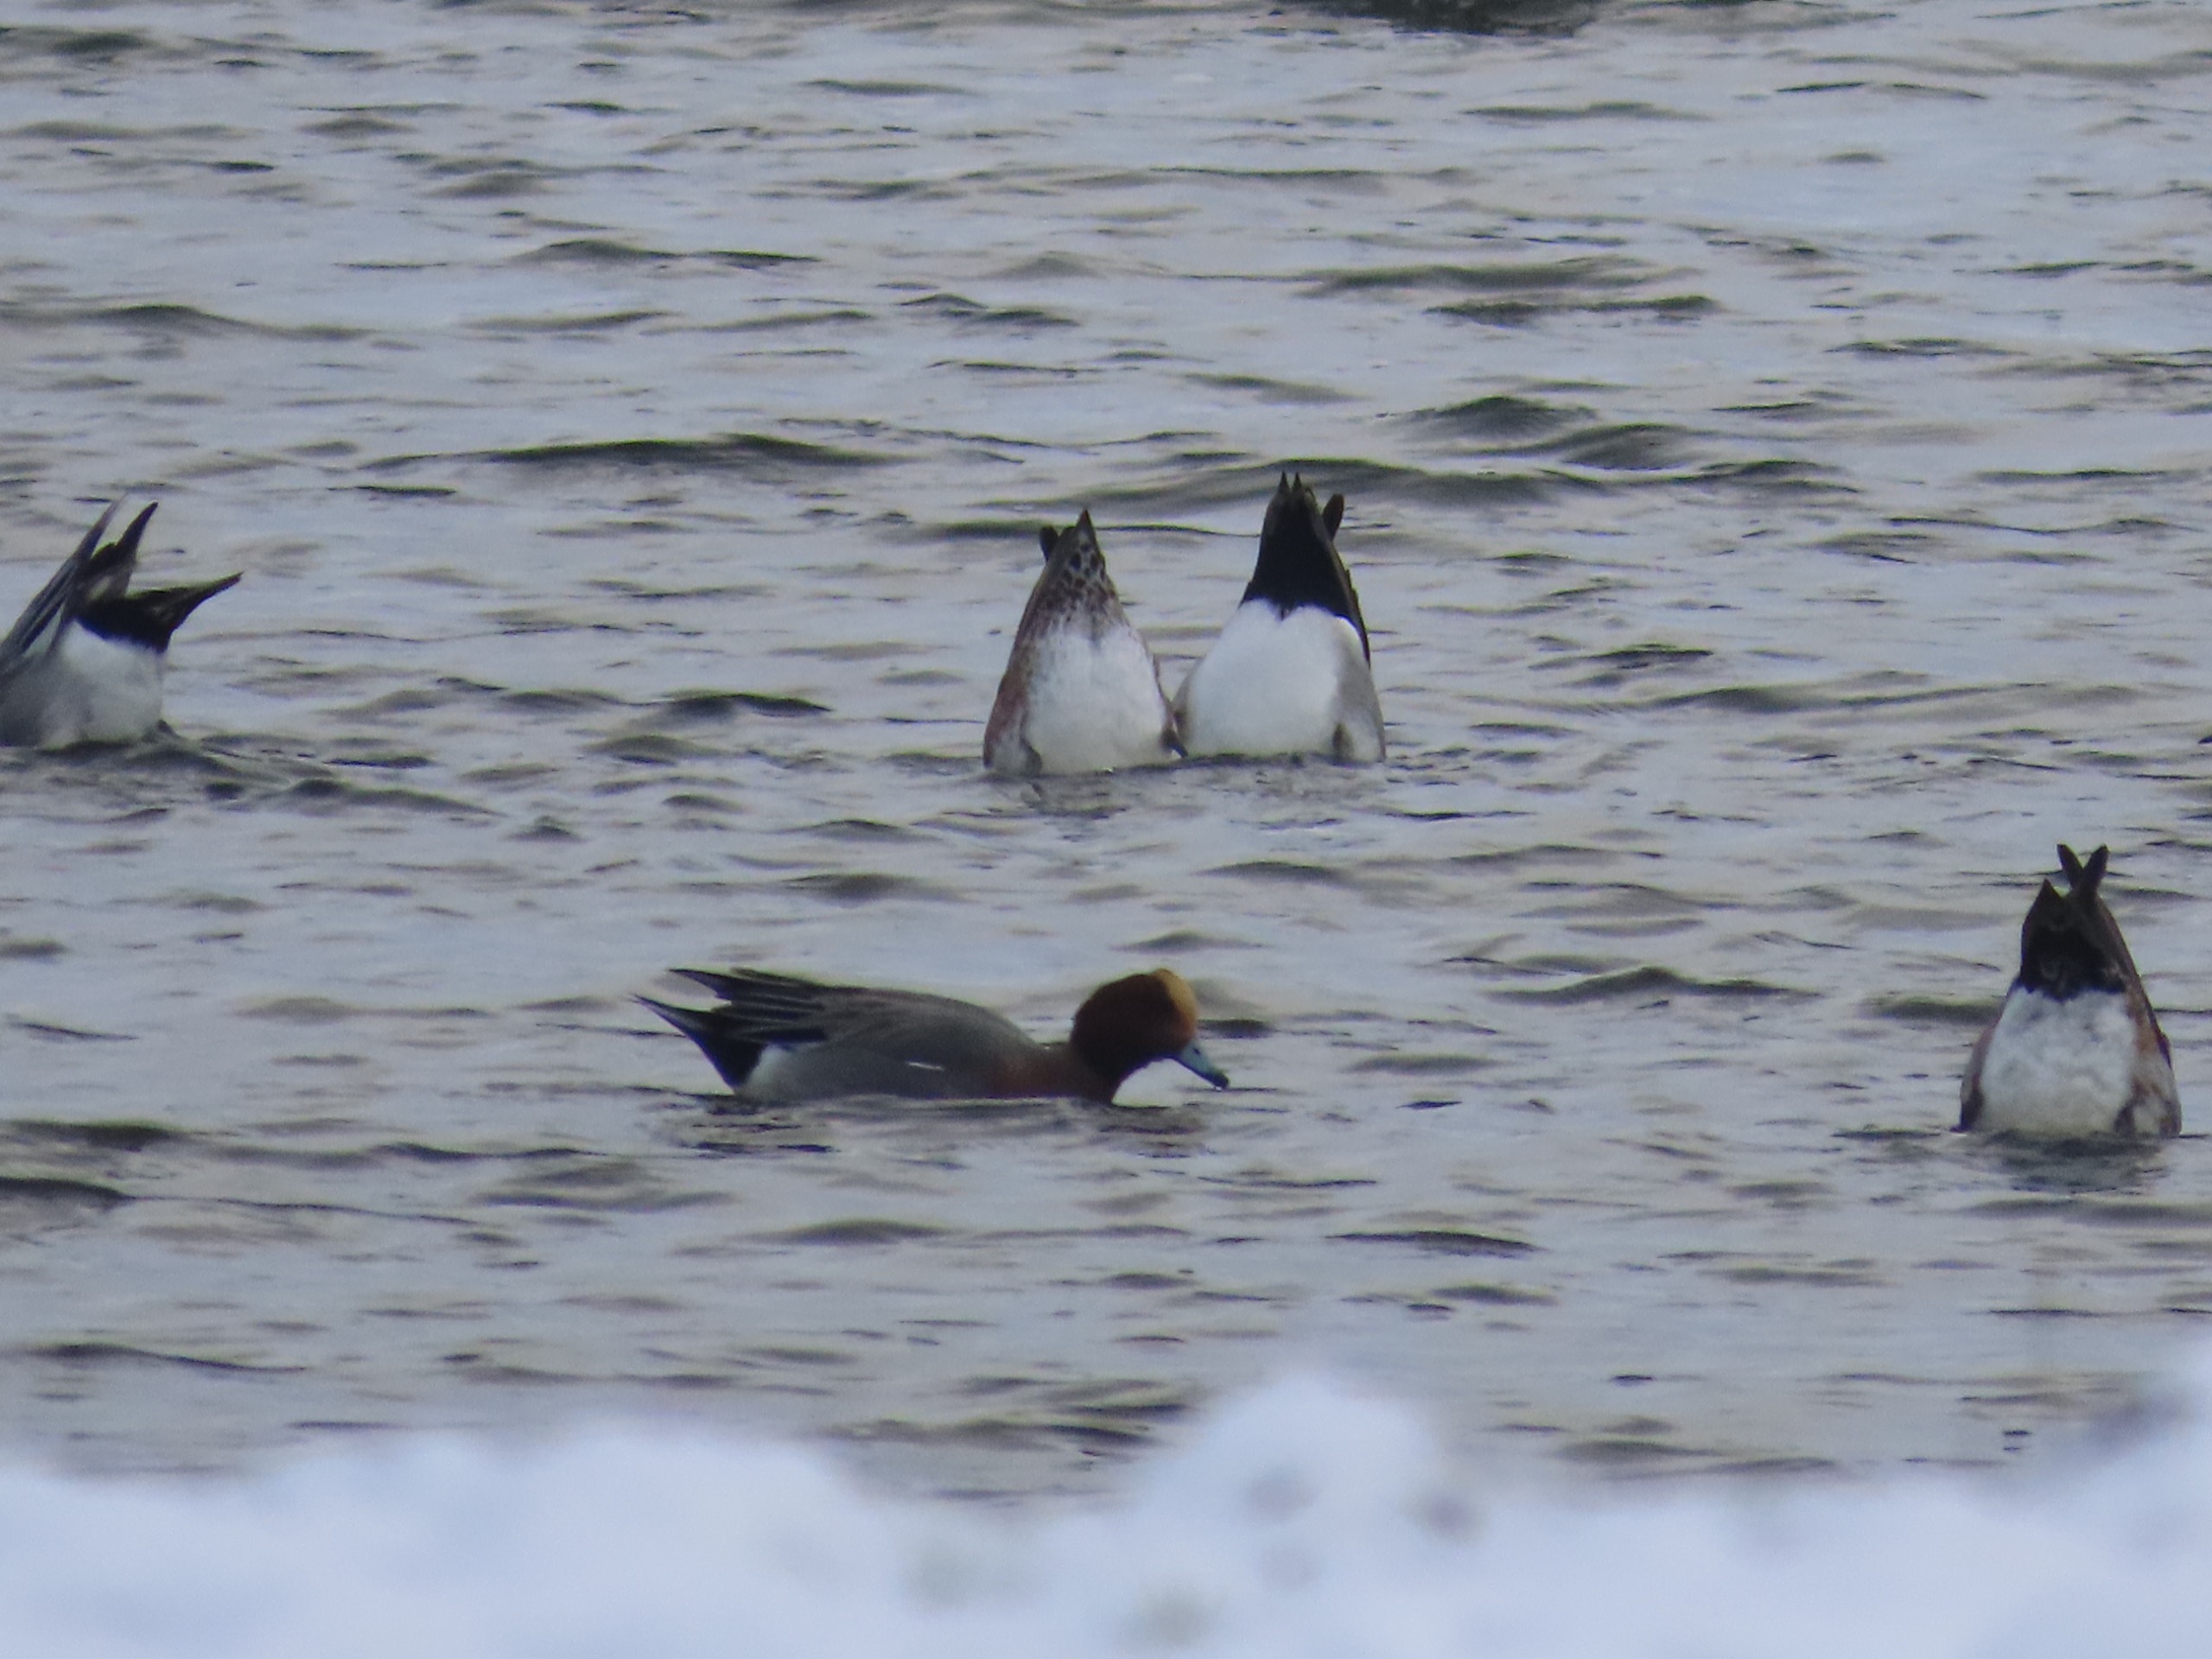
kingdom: Animalia
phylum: Chordata
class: Aves
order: Anseriformes
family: Anatidae
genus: Mareca
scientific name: Mareca penelope
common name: Pibeand
